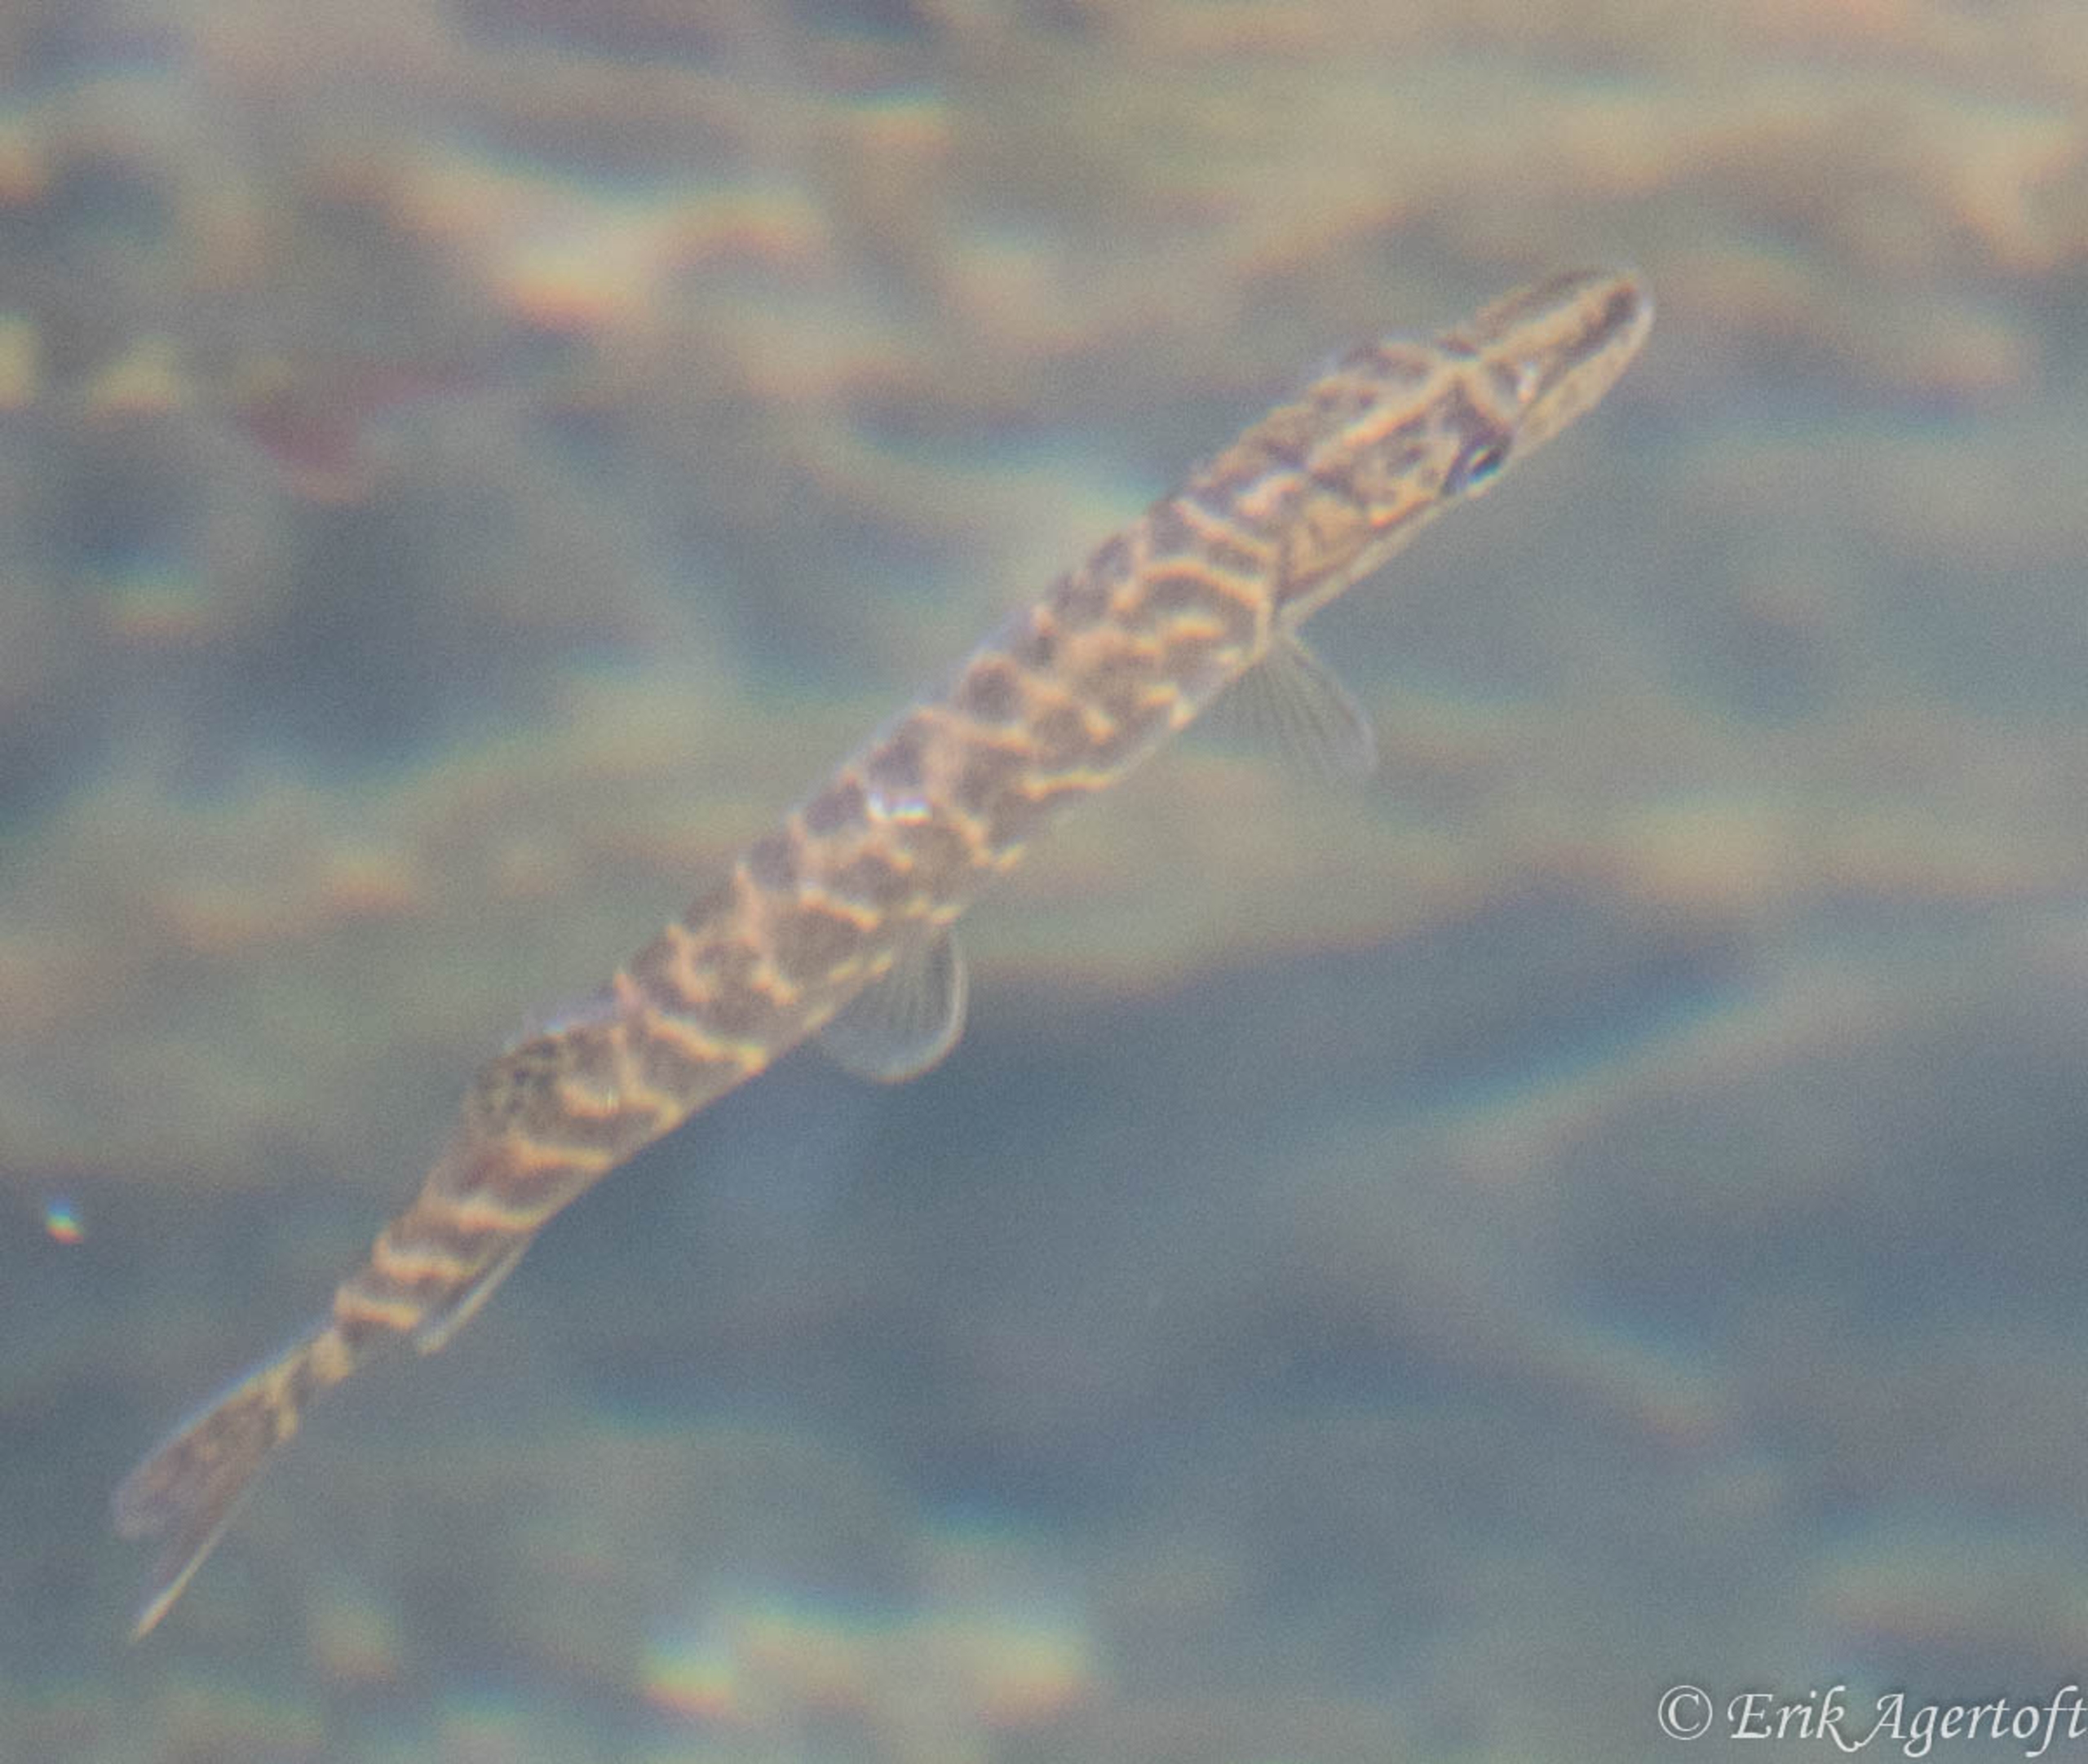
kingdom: Animalia
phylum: Chordata
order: Esociformes
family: Esocidae
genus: Esox
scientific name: Esox lucius
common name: Gedde
